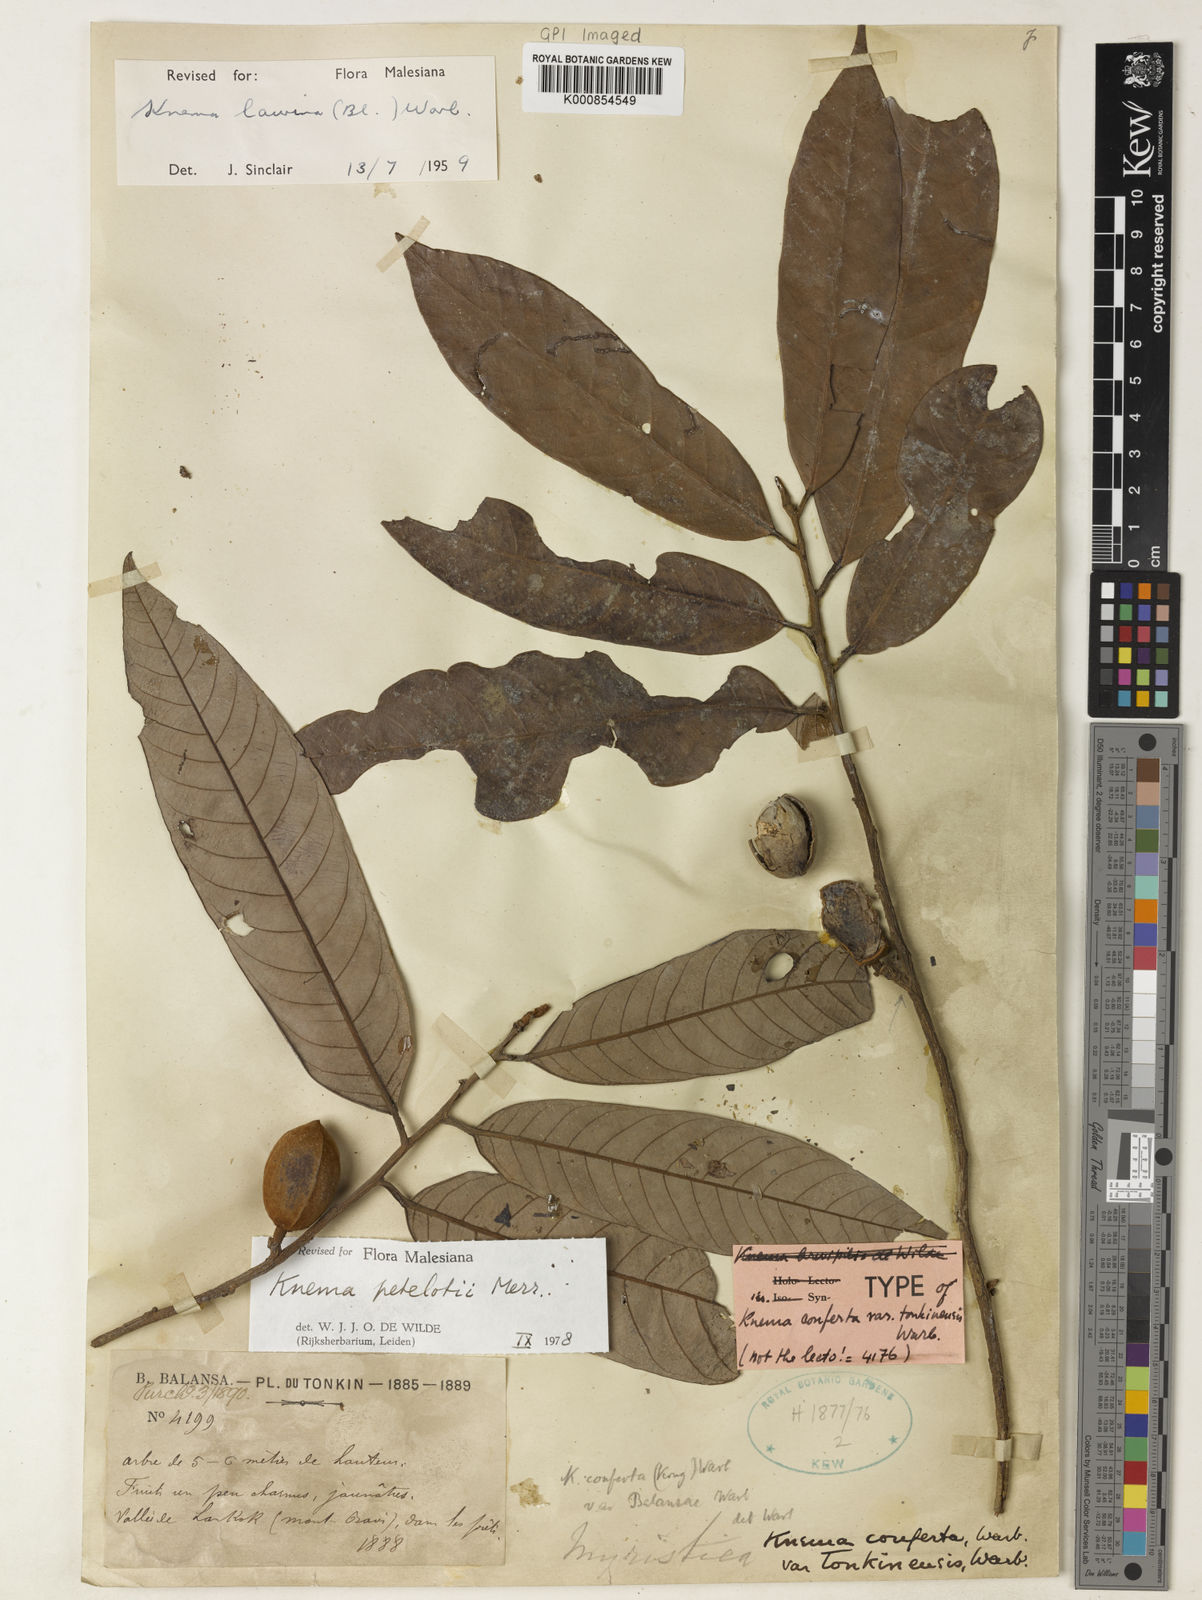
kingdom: Plantae
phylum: Tracheophyta
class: Magnoliopsida
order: Magnoliales
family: Myristicaceae
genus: Knema
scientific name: Knema globularia
